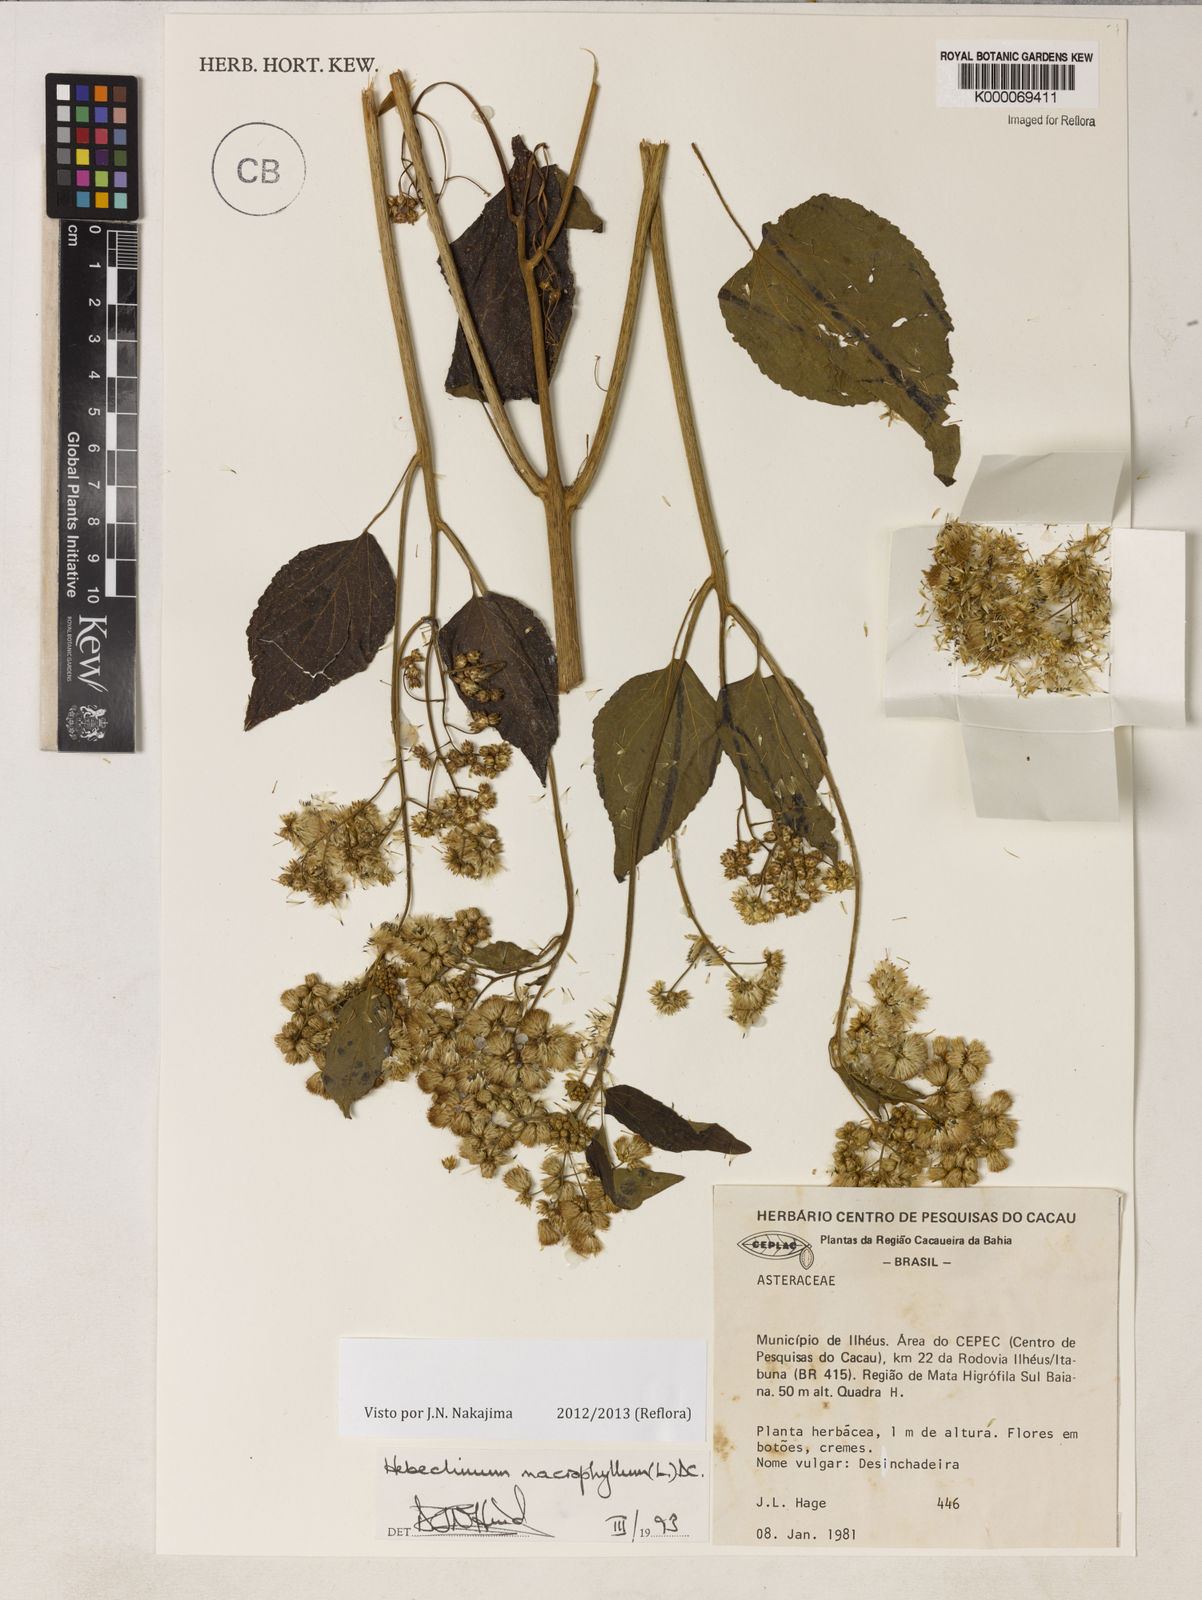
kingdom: Plantae
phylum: Tracheophyta
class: Magnoliopsida
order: Asterales
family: Asteraceae
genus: Hebeclinium
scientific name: Hebeclinium macrophyllum
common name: Largeleaf thoroughwort
